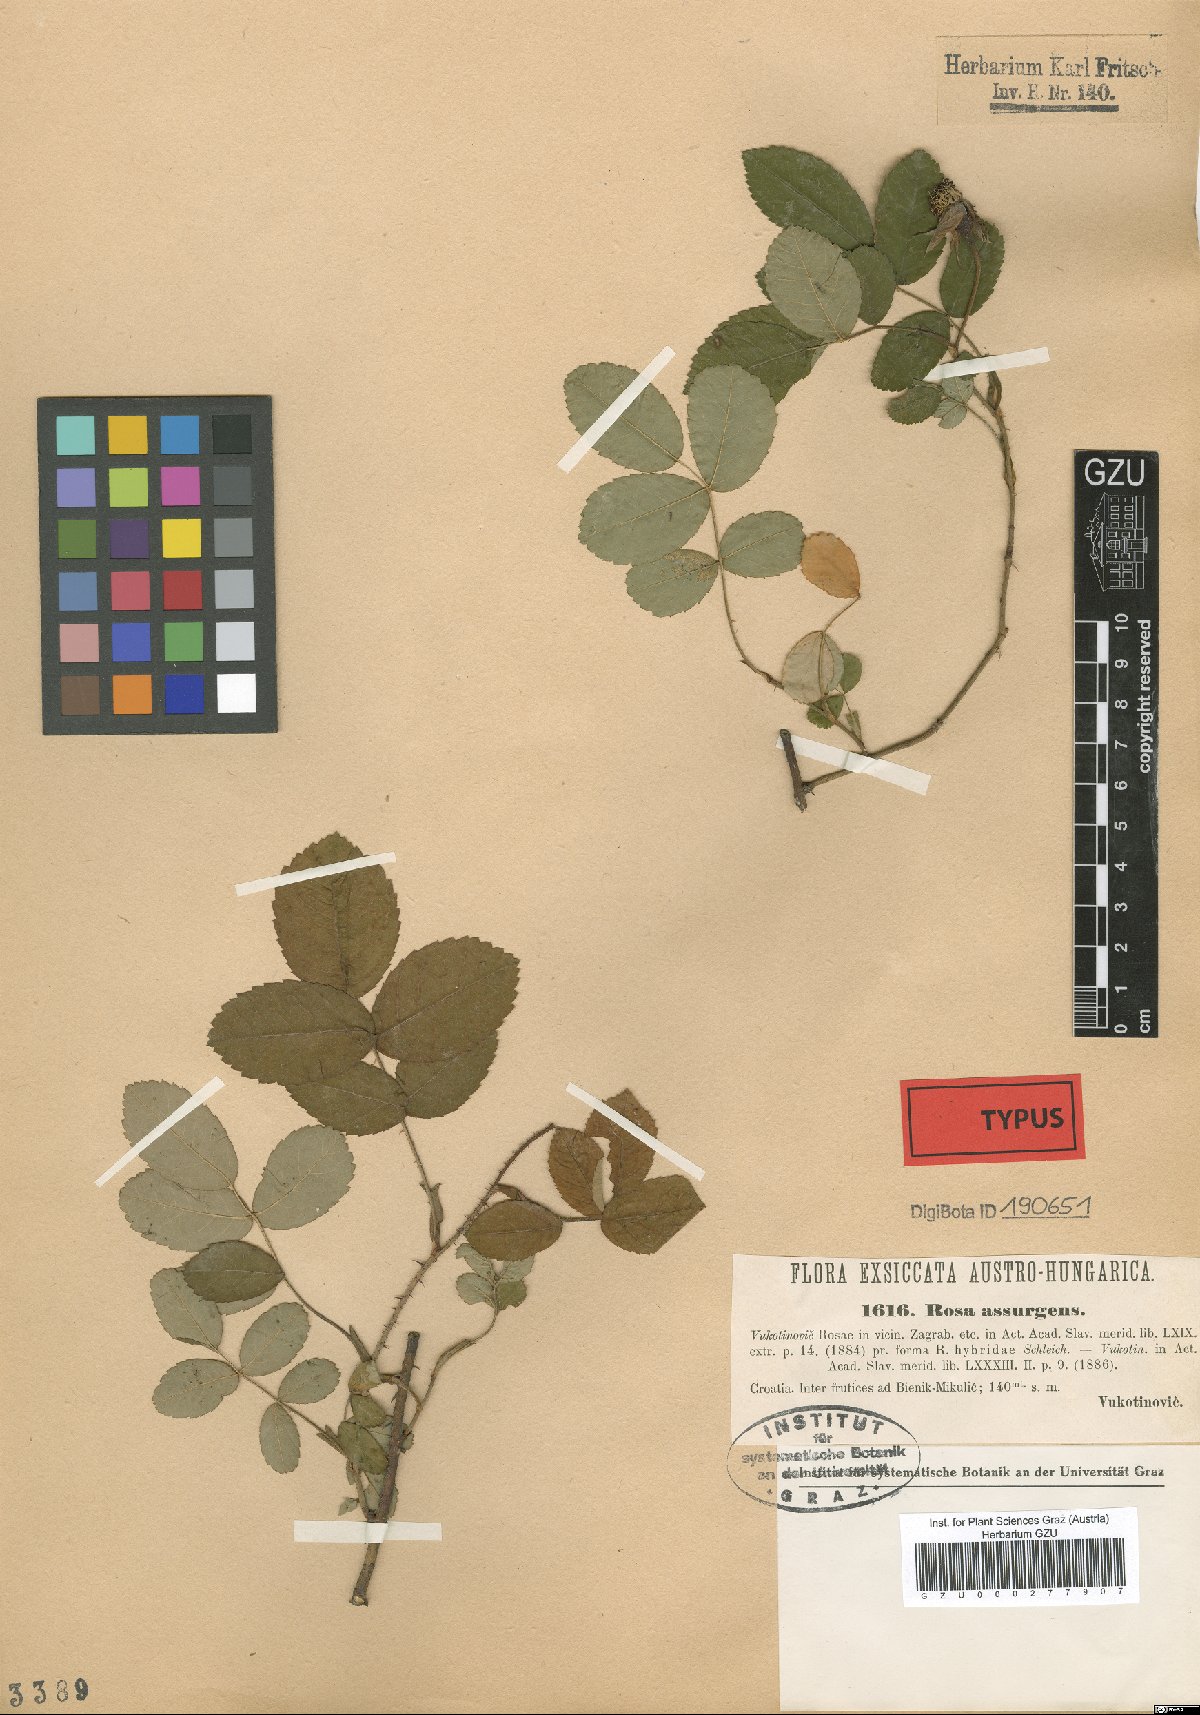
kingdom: Plantae
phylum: Tracheophyta
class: Magnoliopsida
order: Rosales
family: Rosaceae
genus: Rosa
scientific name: Rosa assurgens
